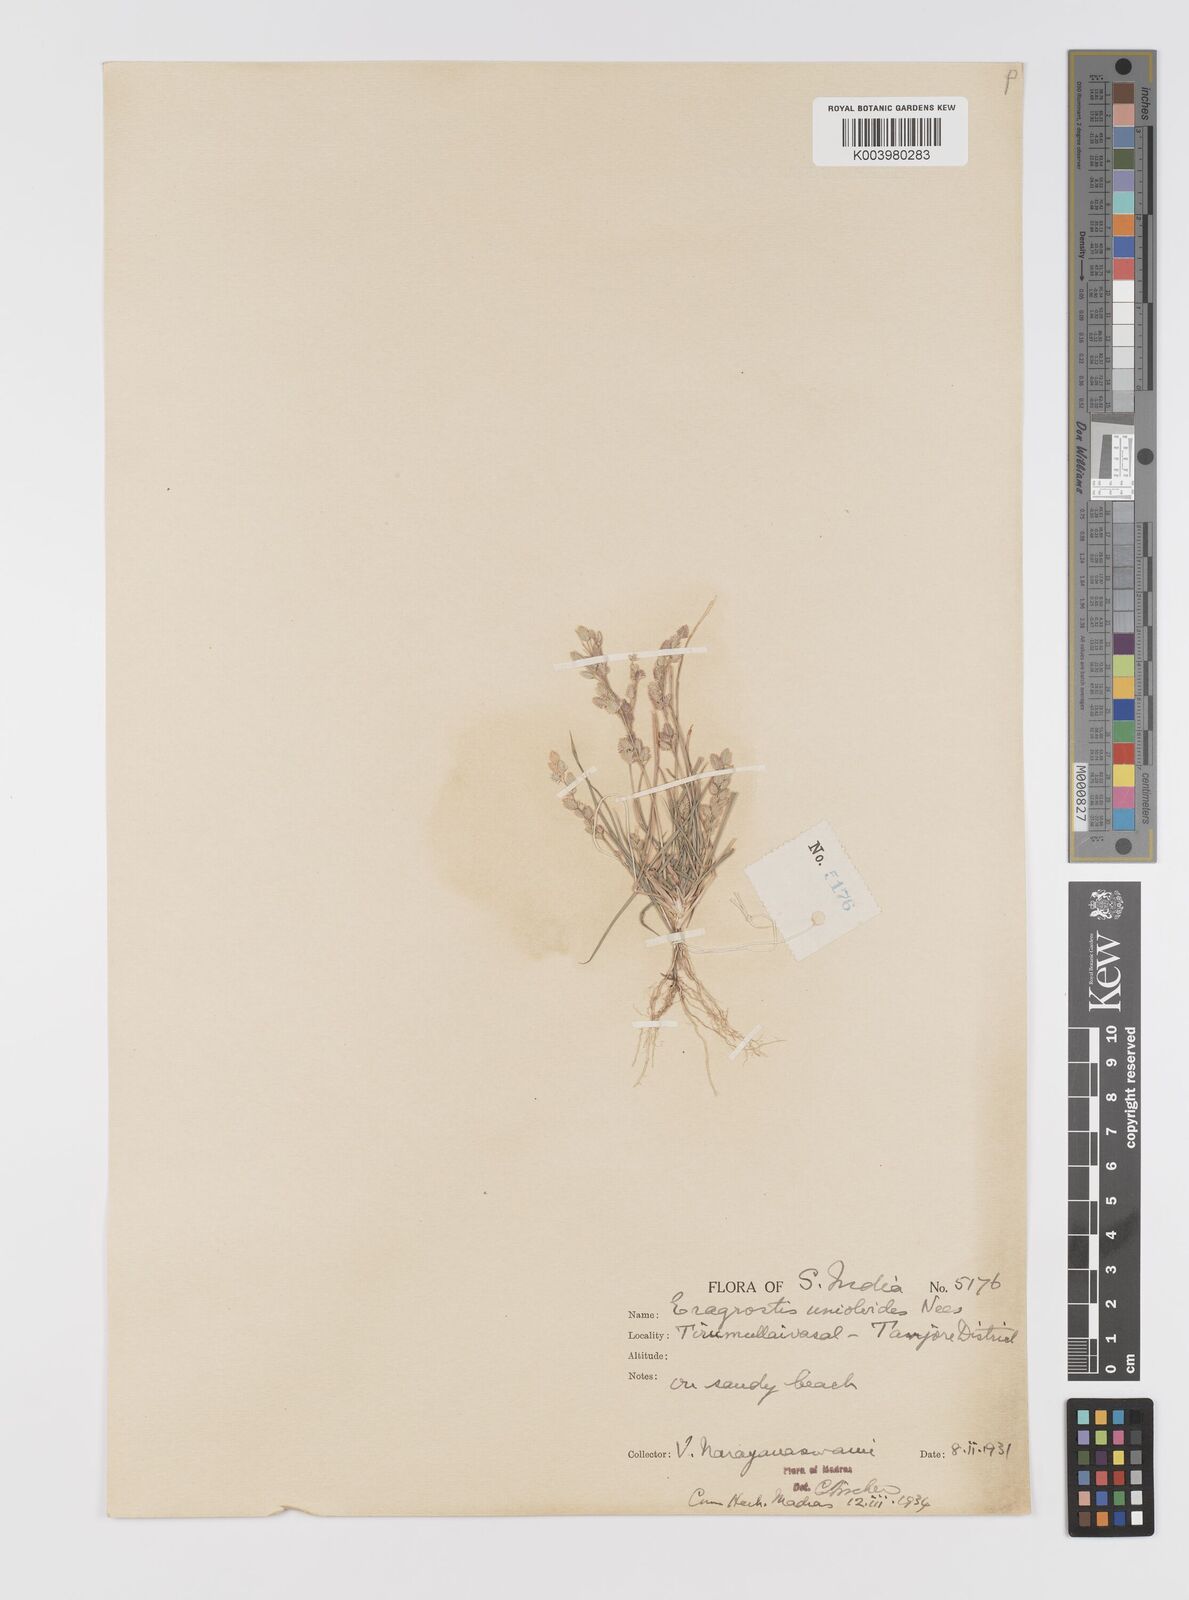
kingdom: Plantae
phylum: Tracheophyta
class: Liliopsida
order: Poales
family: Poaceae
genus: Eragrostis
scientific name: Eragrostis unioloides
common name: Chinese lovegrass
